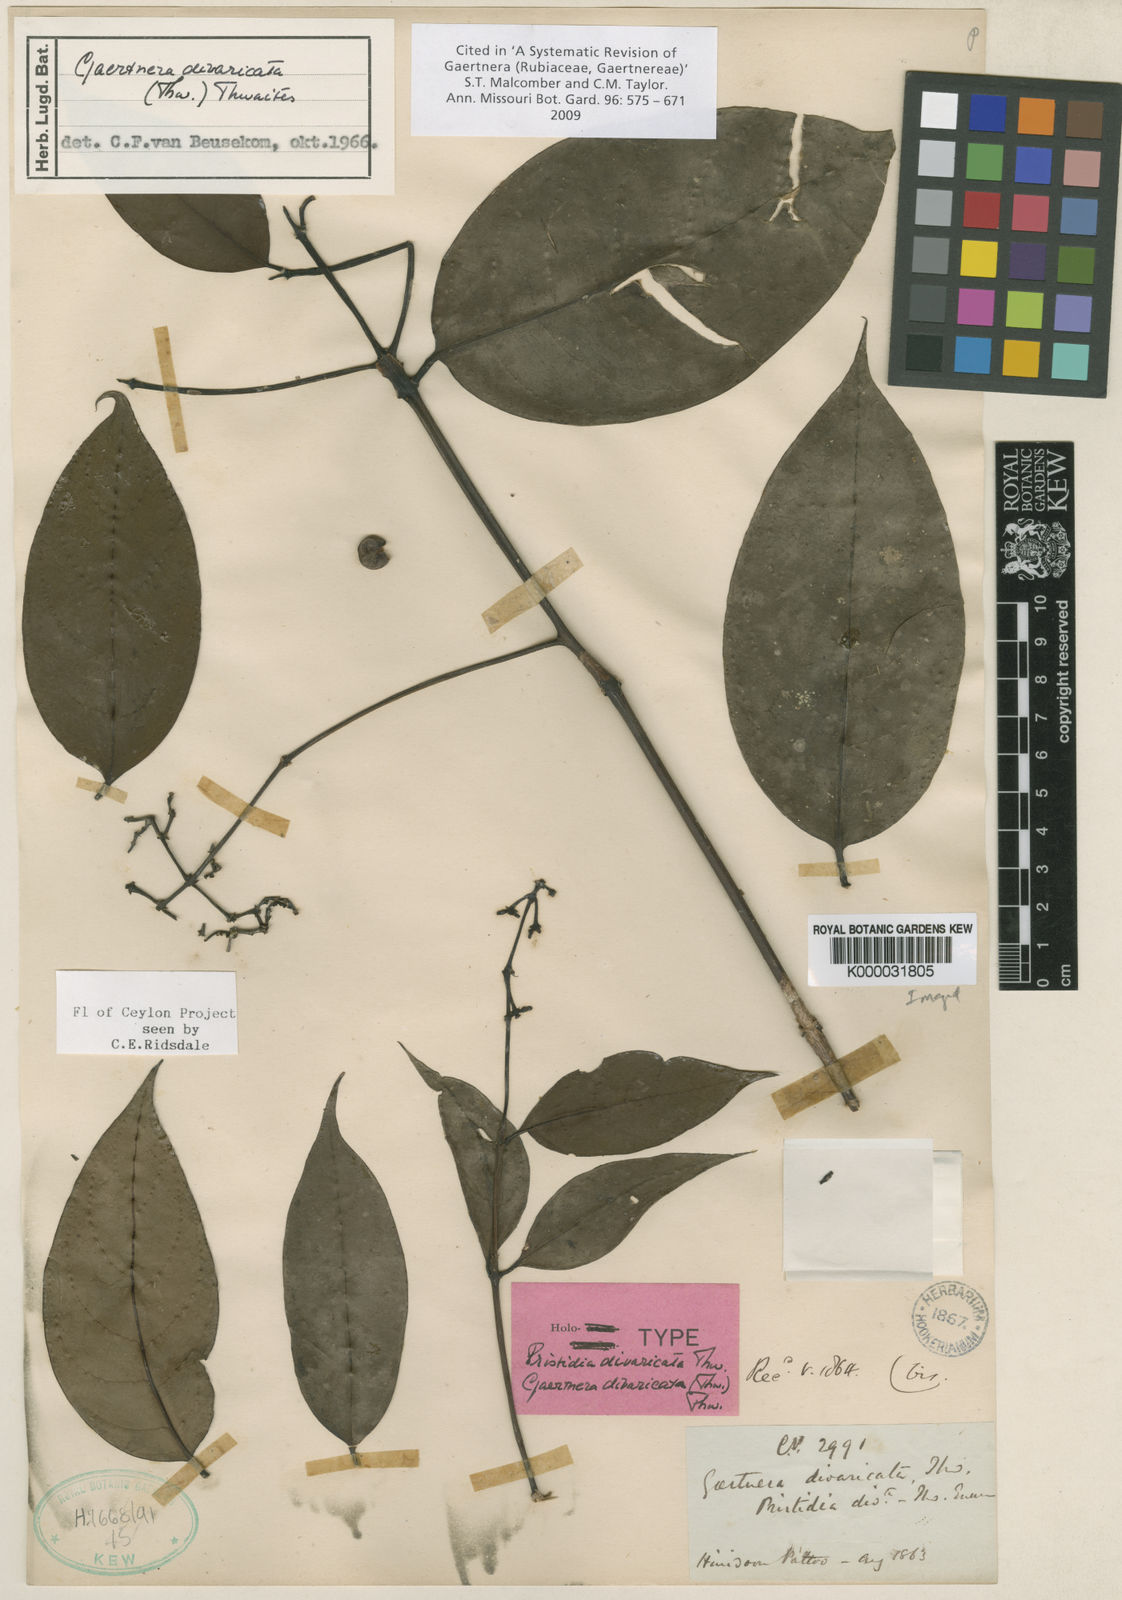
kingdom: Plantae
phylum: Tracheophyta
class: Magnoliopsida
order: Gentianales
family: Rubiaceae
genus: Gaertnera
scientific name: Gaertnera divaricata
